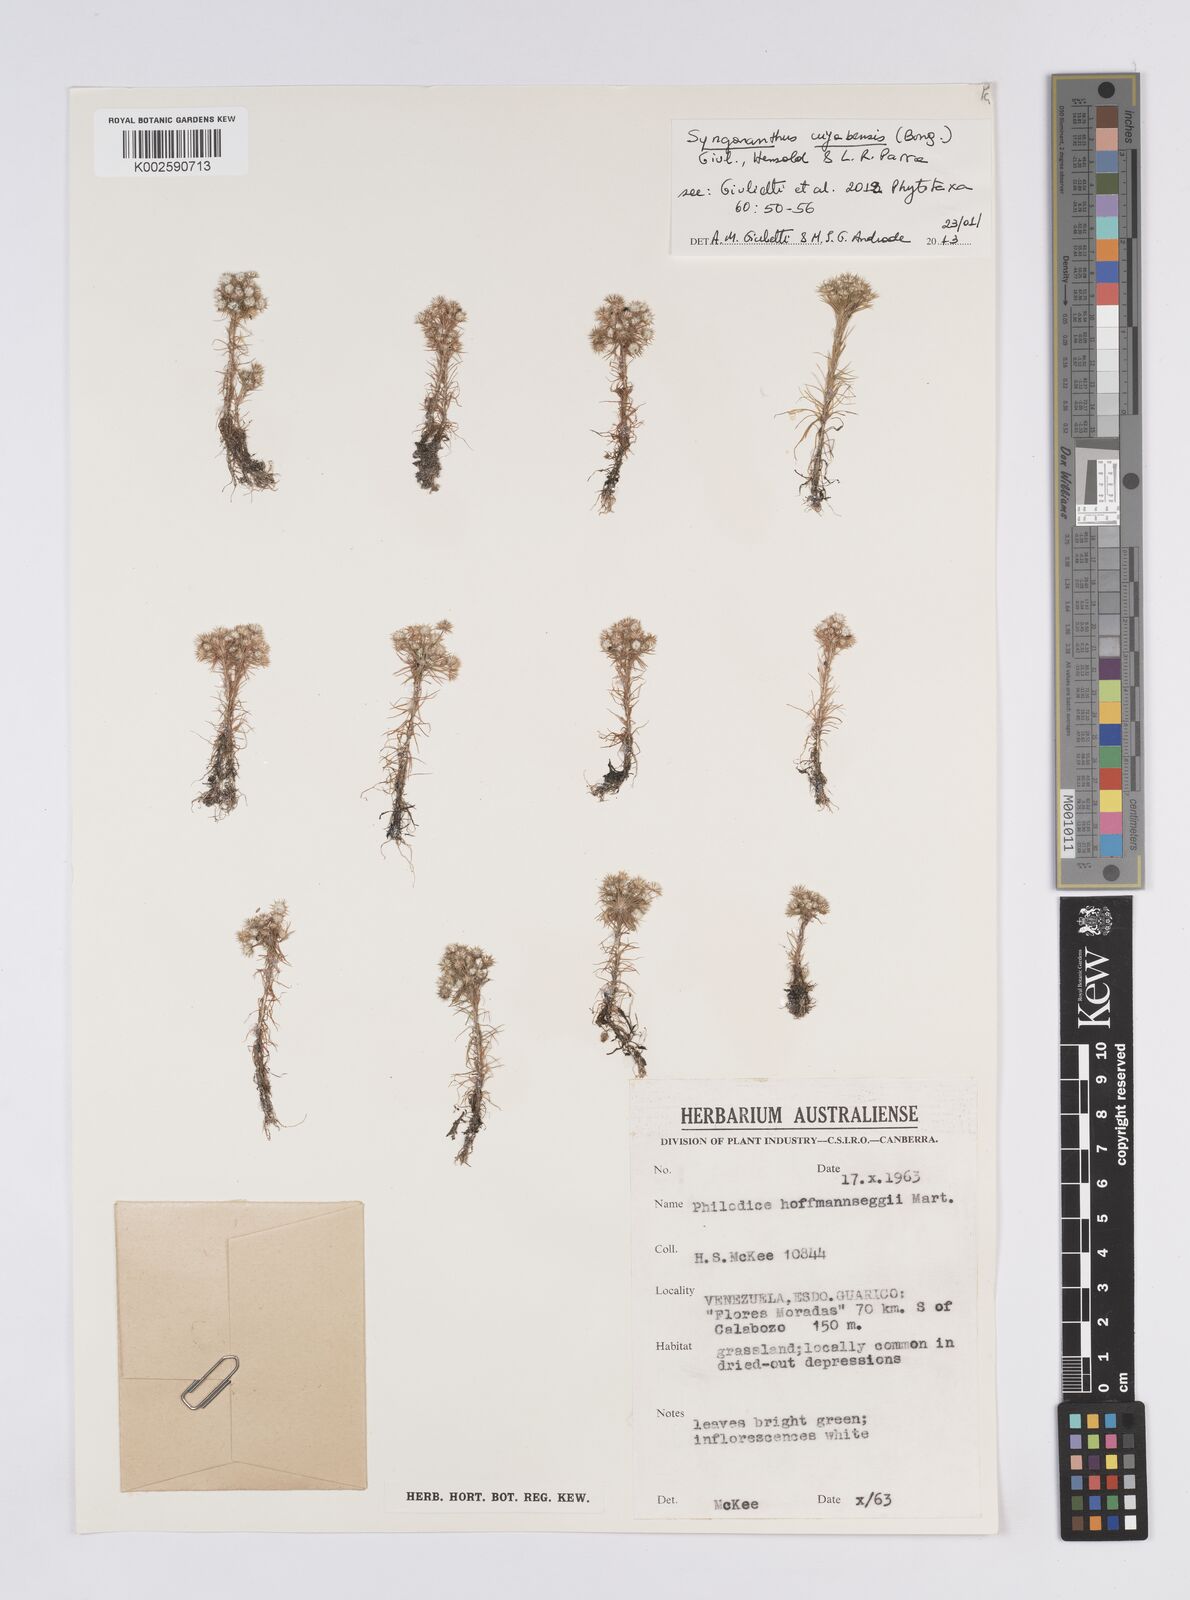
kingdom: Plantae
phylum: Tracheophyta
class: Liliopsida
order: Poales
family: Eriocaulaceae
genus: Syngonanthus
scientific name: Syngonanthus cuyabensis
